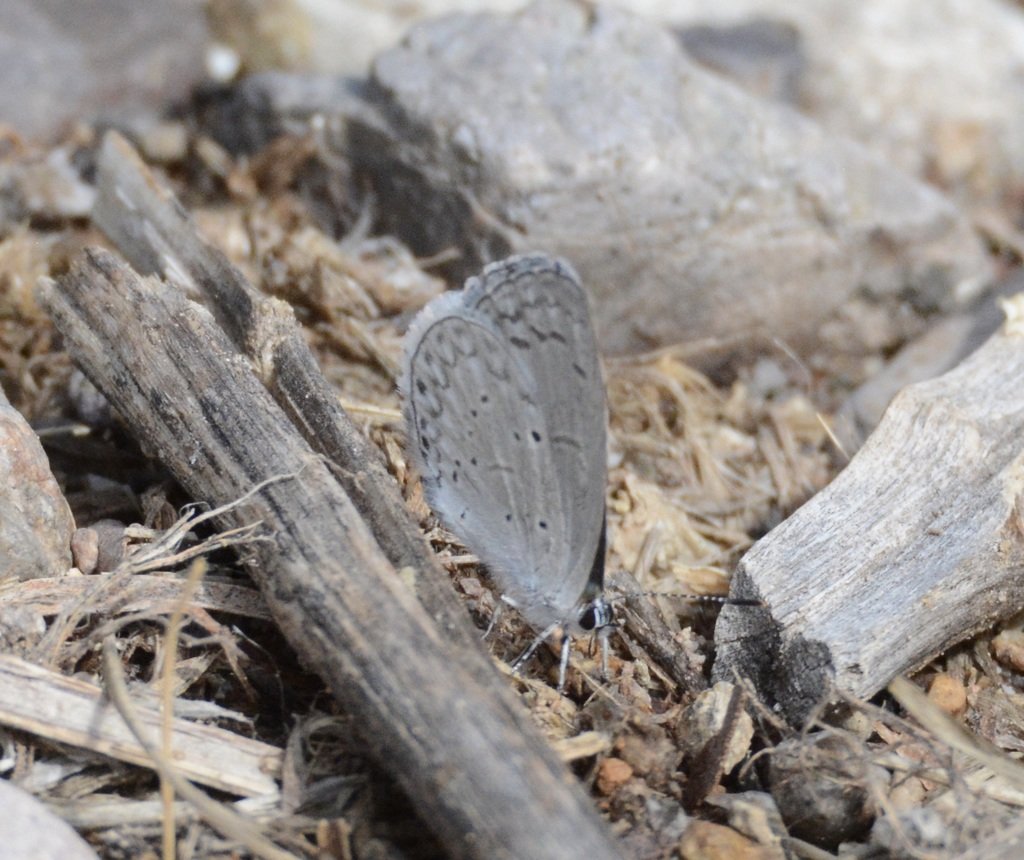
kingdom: Animalia
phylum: Arthropoda
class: Insecta
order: Lepidoptera
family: Lycaenidae
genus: Celastrina
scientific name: Celastrina ladon
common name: Echo Azure
